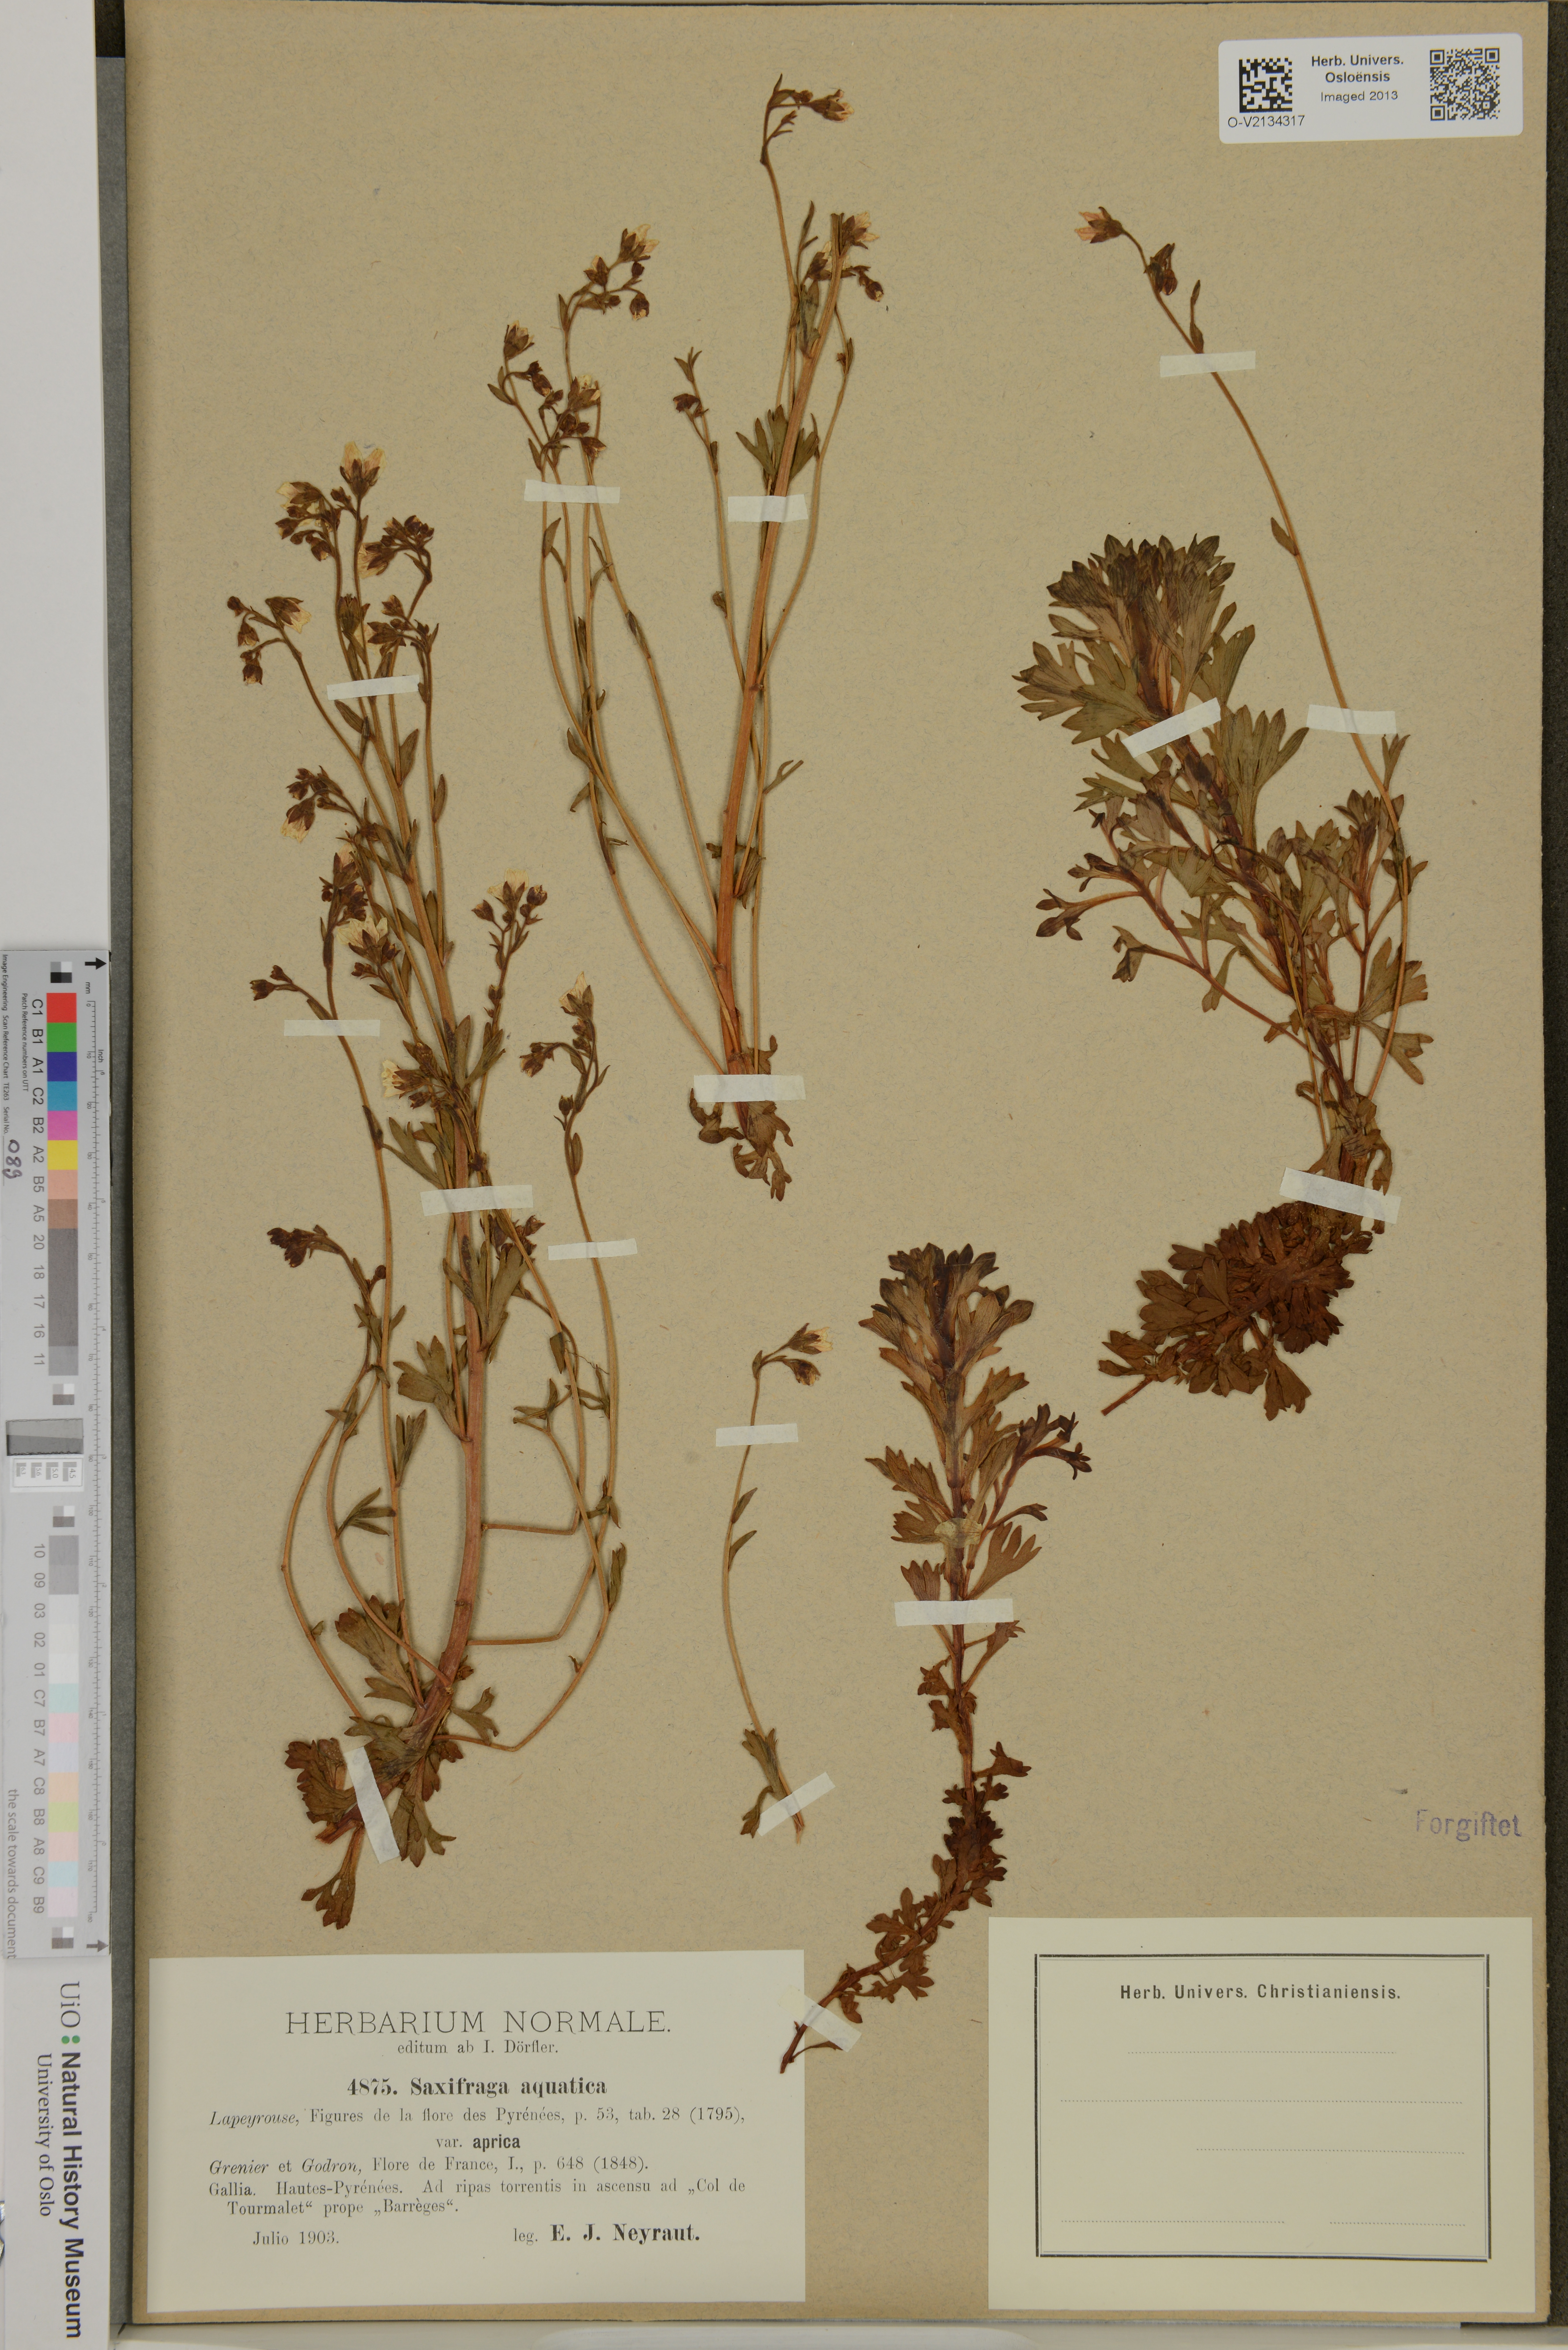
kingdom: Plantae
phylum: Tracheophyta
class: Magnoliopsida
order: Saxifragales
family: Saxifragaceae
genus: Saxifraga
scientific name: Saxifraga aquatica
